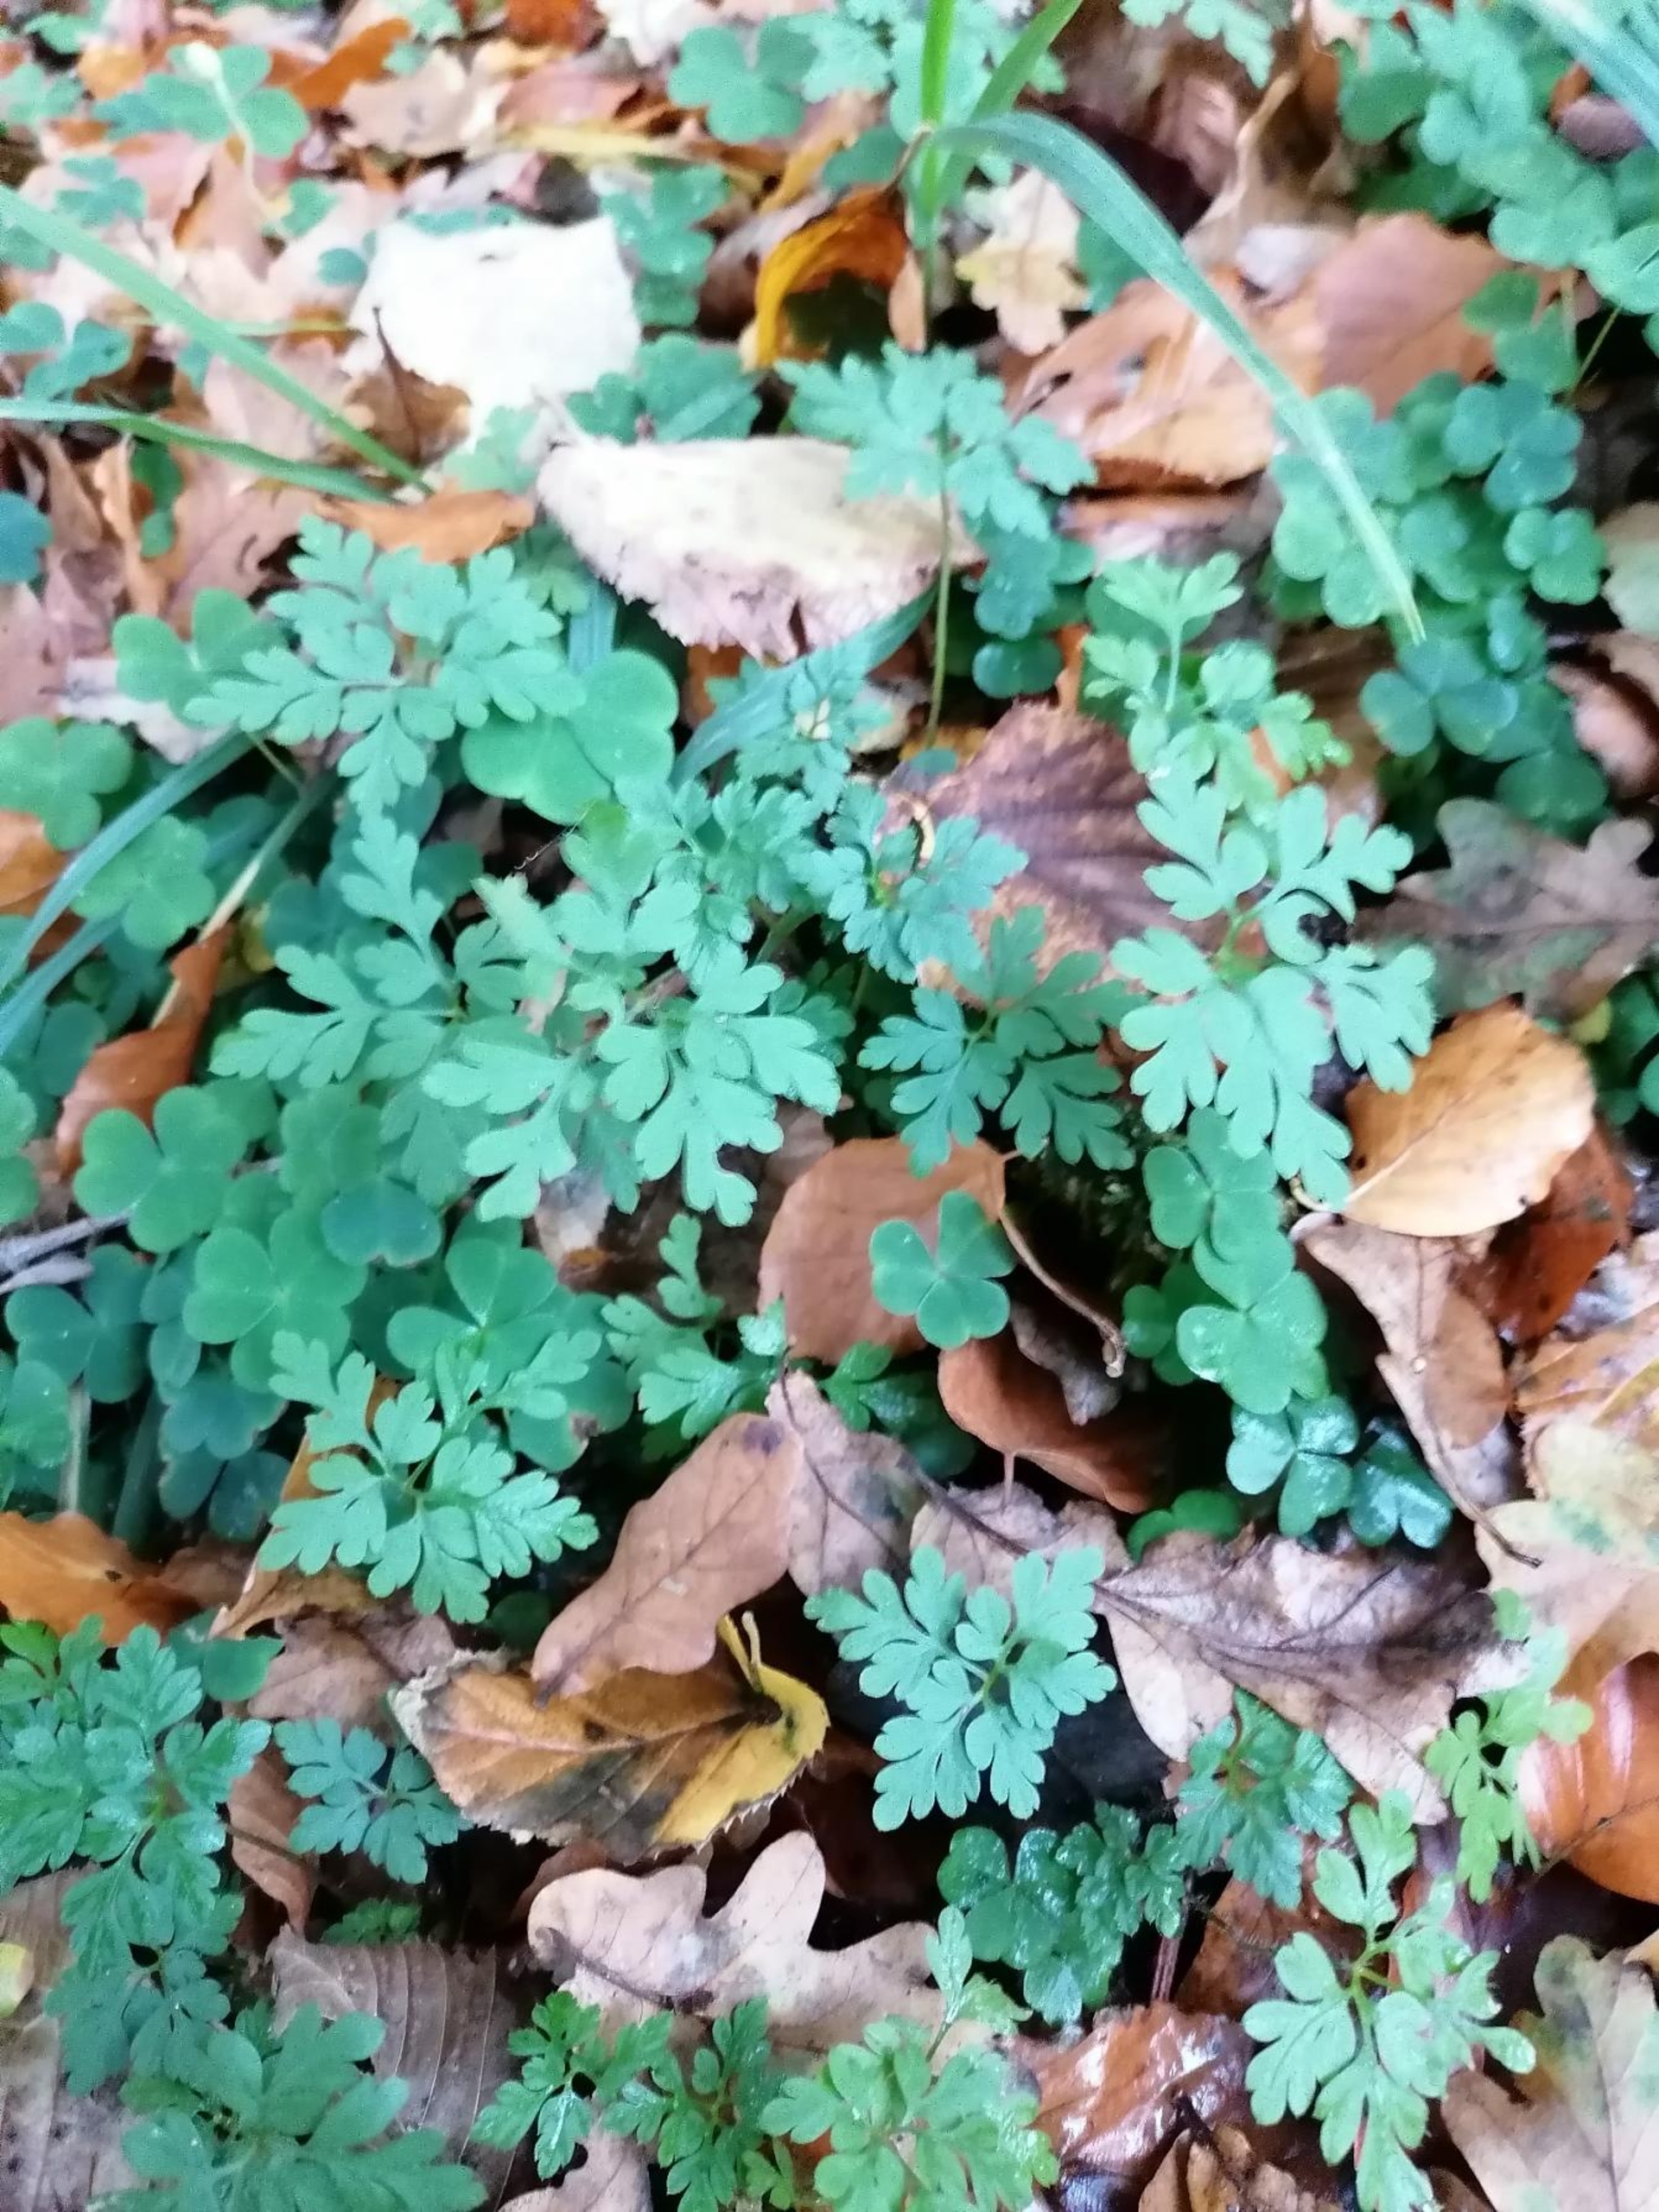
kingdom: Plantae
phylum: Tracheophyta
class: Magnoliopsida
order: Geraniales
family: Geraniaceae
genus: Geranium
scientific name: Geranium robertianum
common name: Stinkende storkenæb
